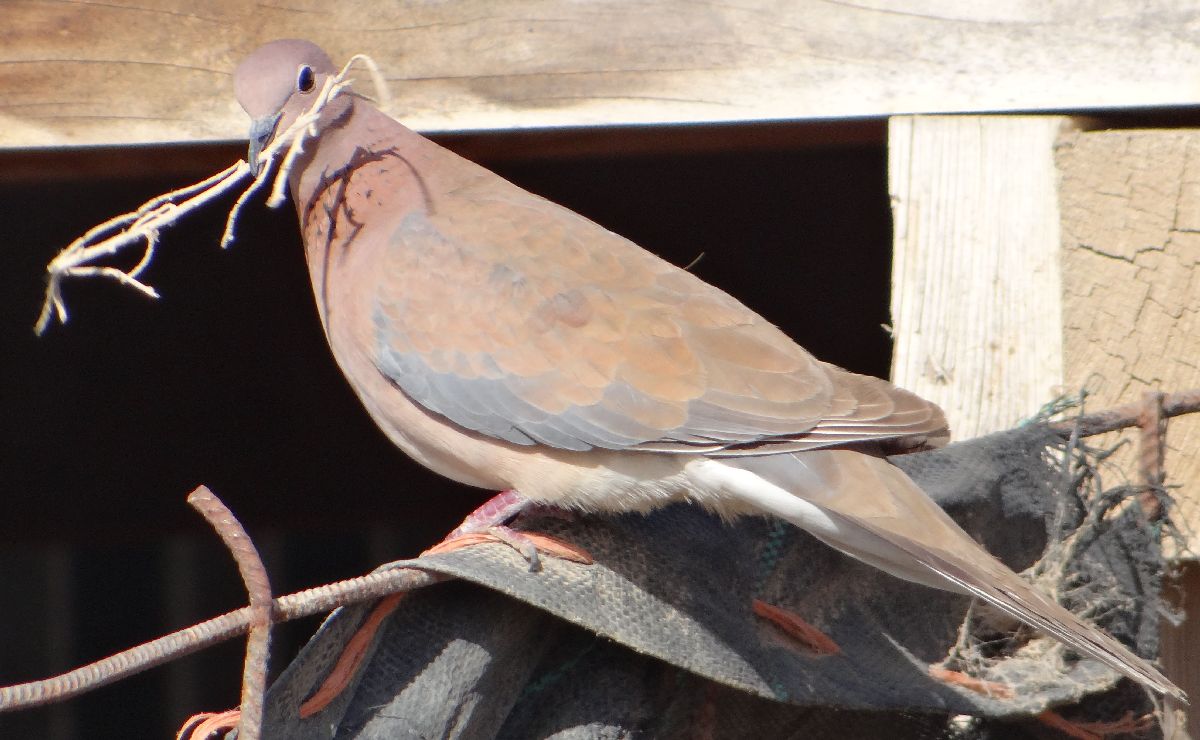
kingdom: Animalia
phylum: Chordata
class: Aves
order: Columbiformes
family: Columbidae
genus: Spilopelia
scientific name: Spilopelia senegalensis
